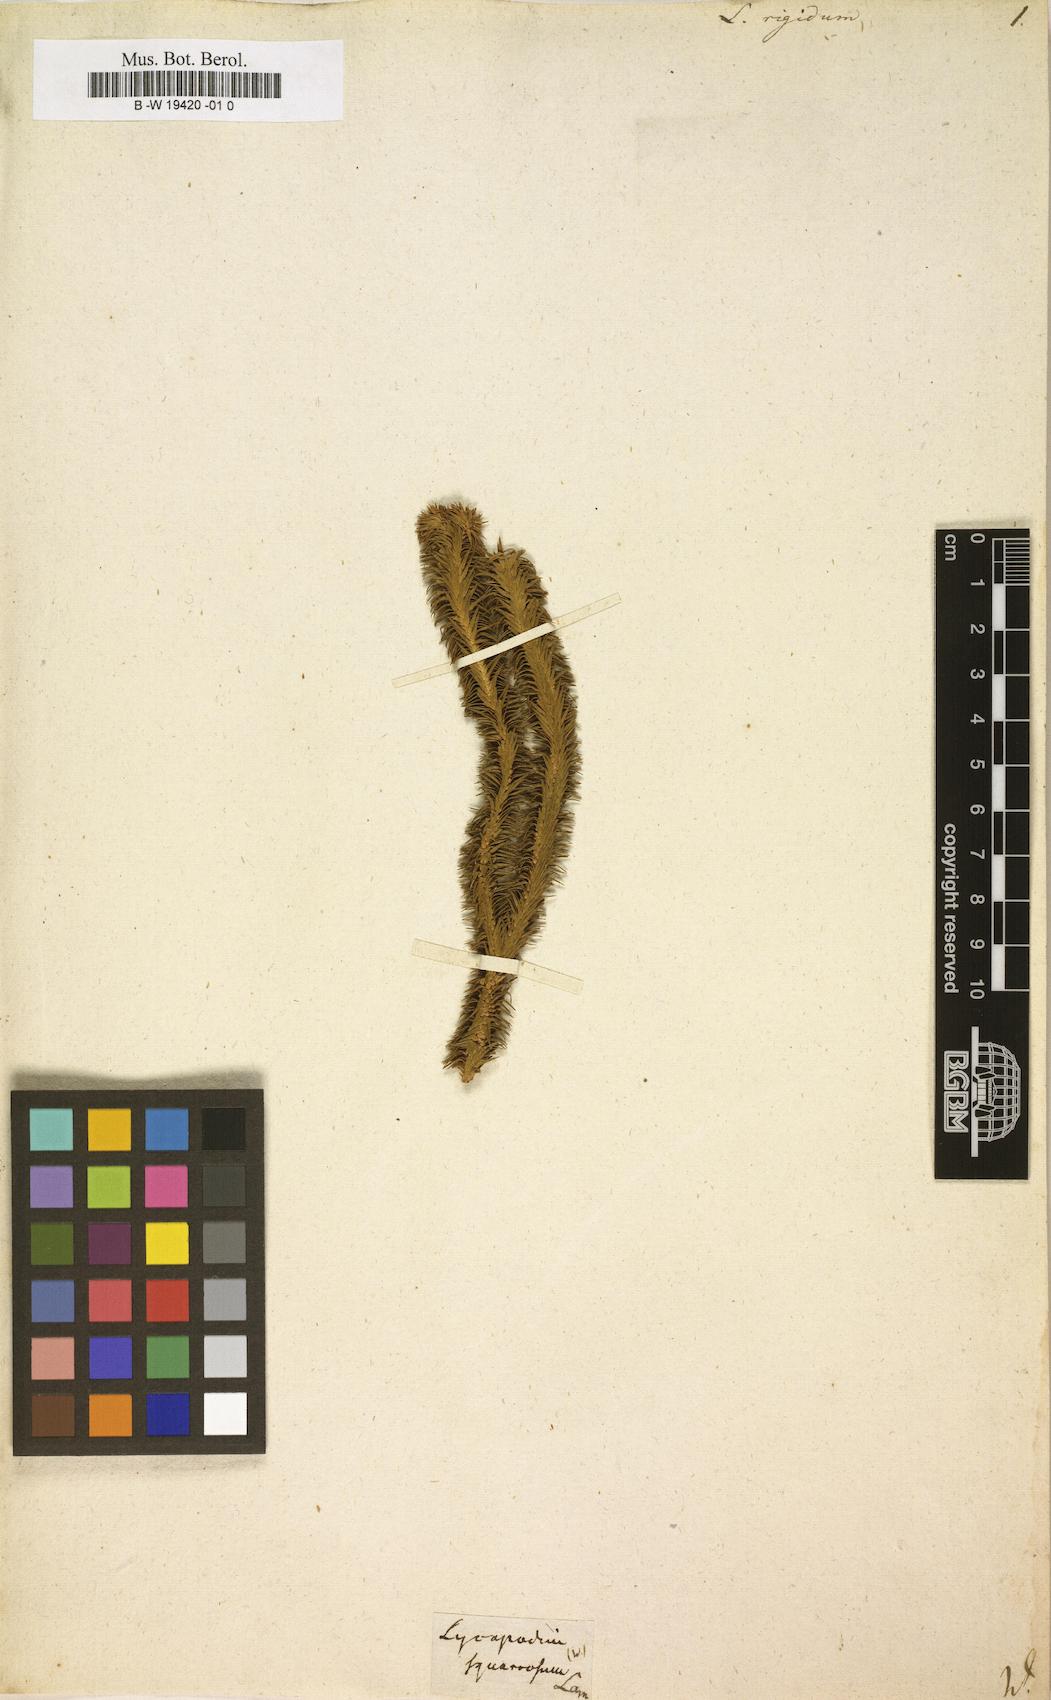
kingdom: Plantae
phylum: Tracheophyta
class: Lycopodiopsida
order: Lycopodiales
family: Lycopodiaceae
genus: Phlegmariurus
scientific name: Phlegmariurus reflexus
